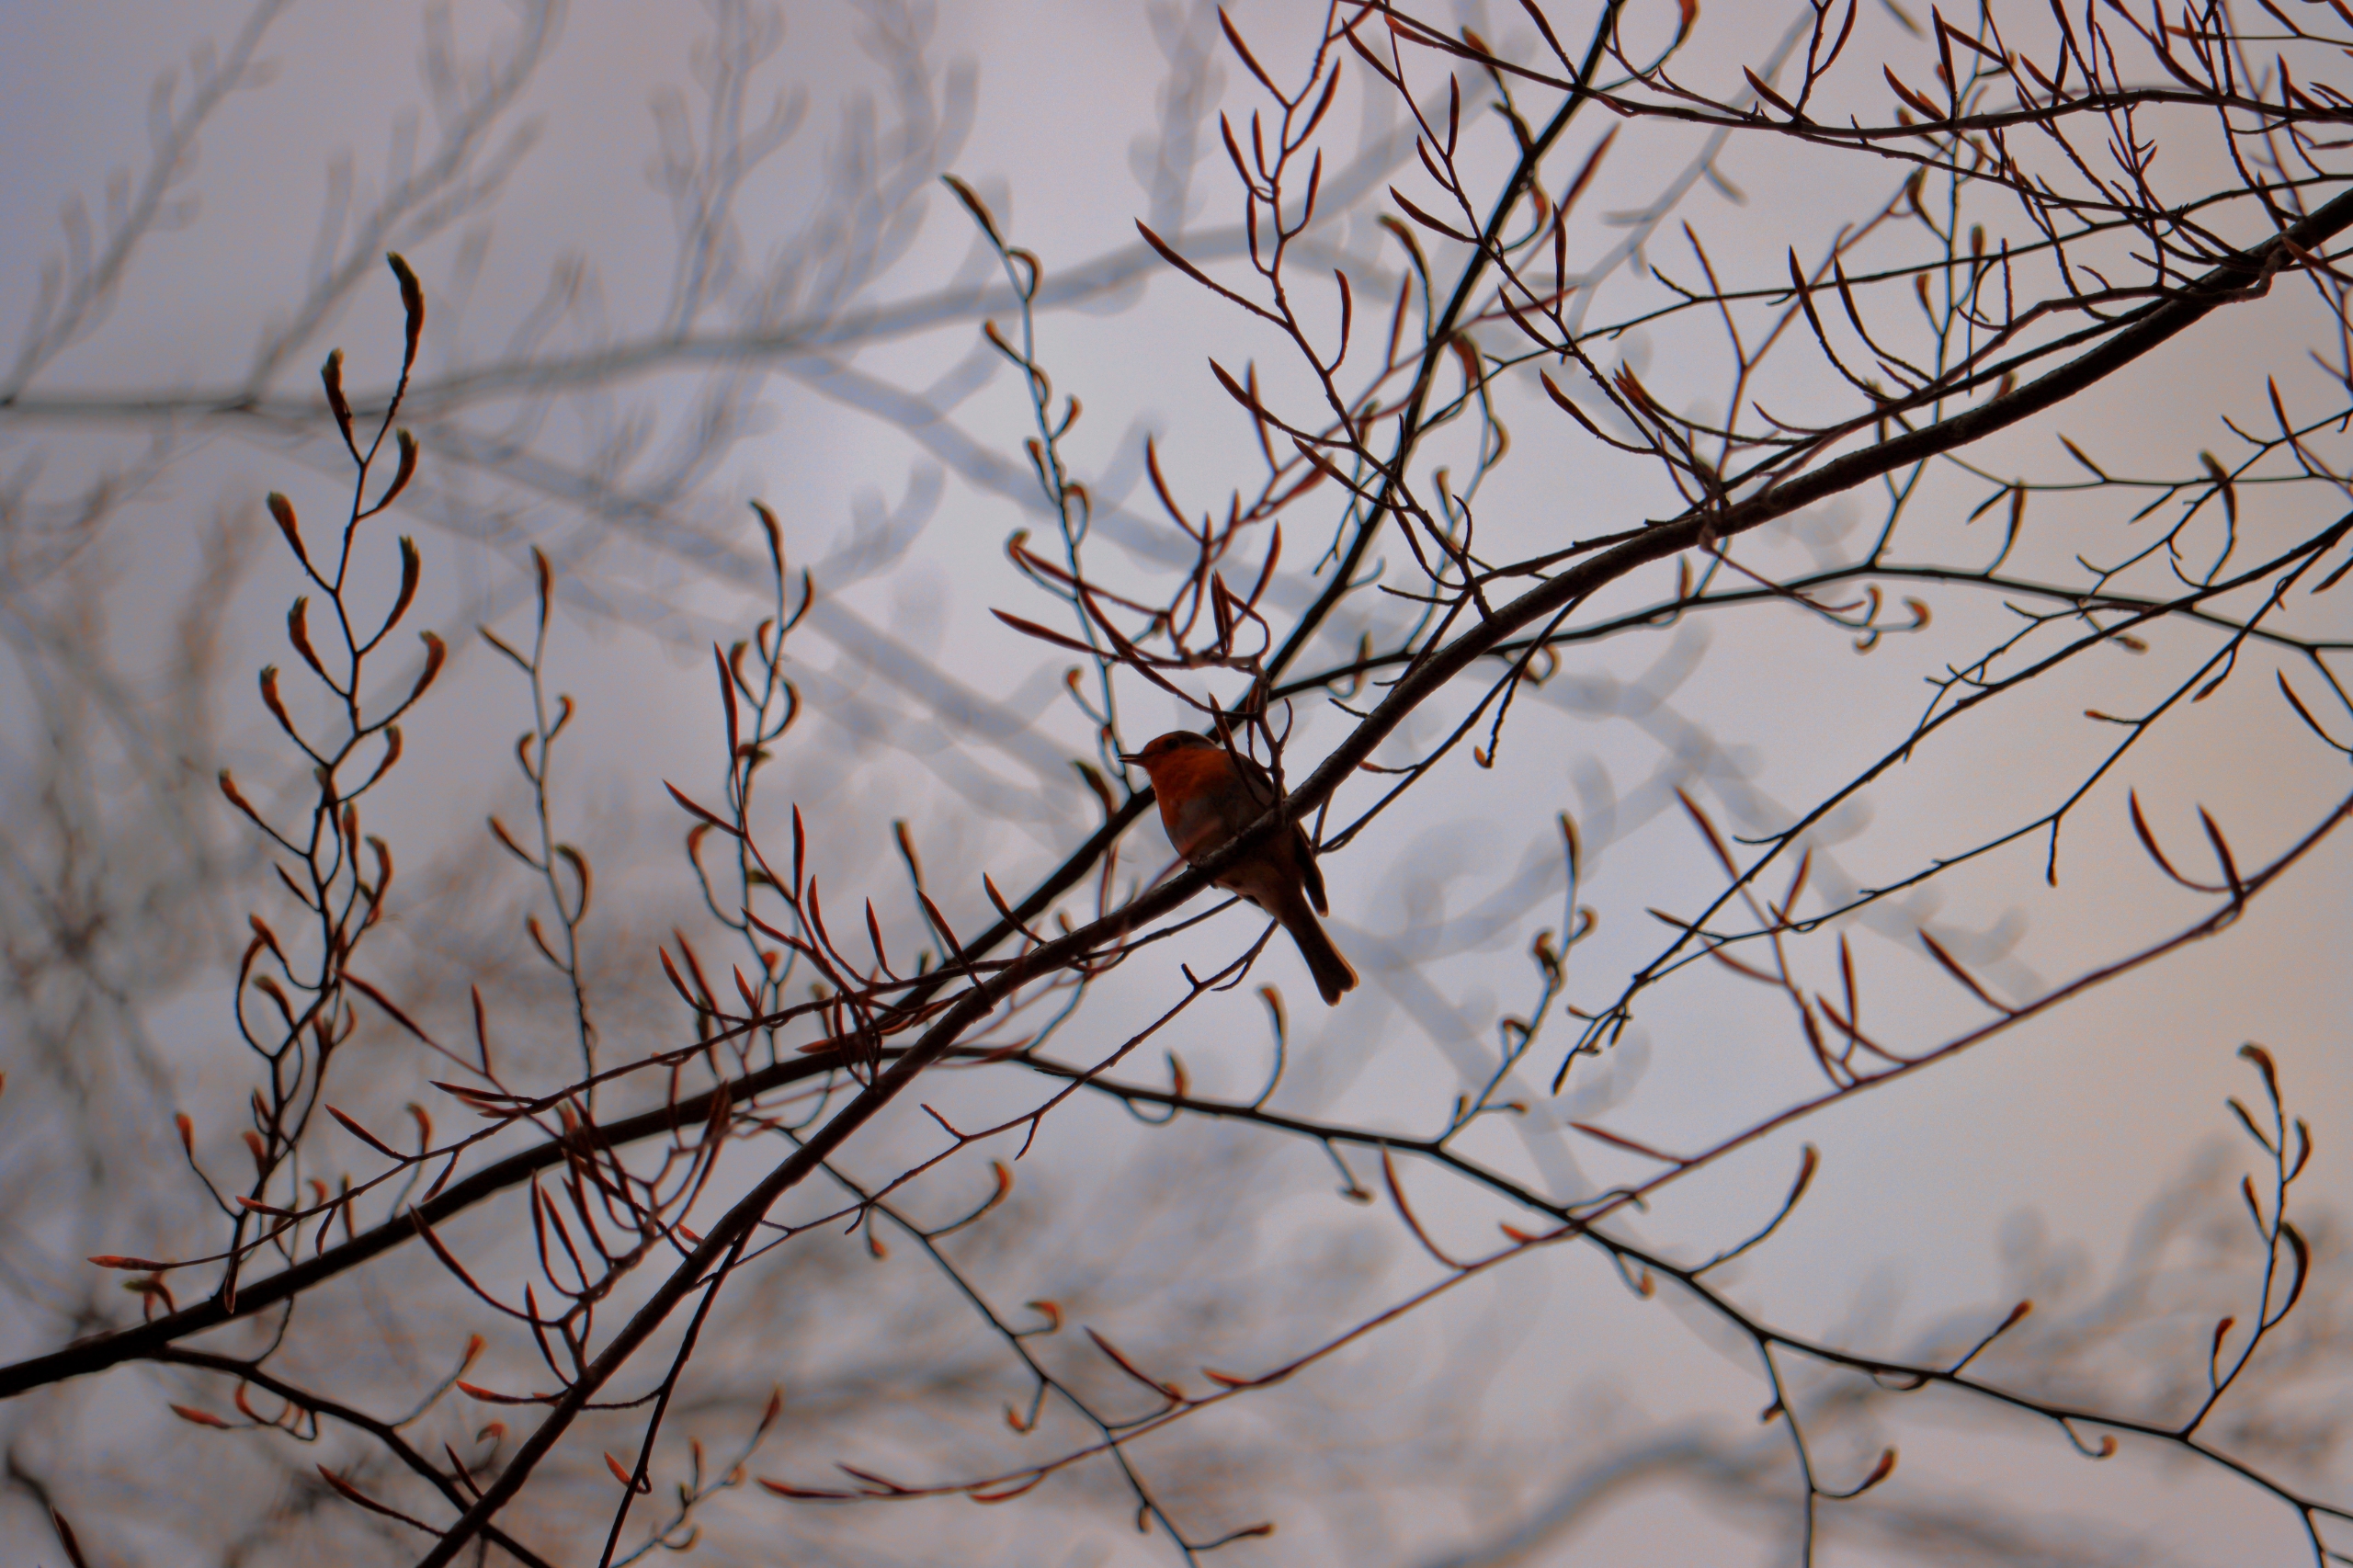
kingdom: Animalia
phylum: Chordata
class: Aves
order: Passeriformes
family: Muscicapidae
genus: Erithacus
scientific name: Erithacus rubecula
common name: Rødhals/rødkælk
